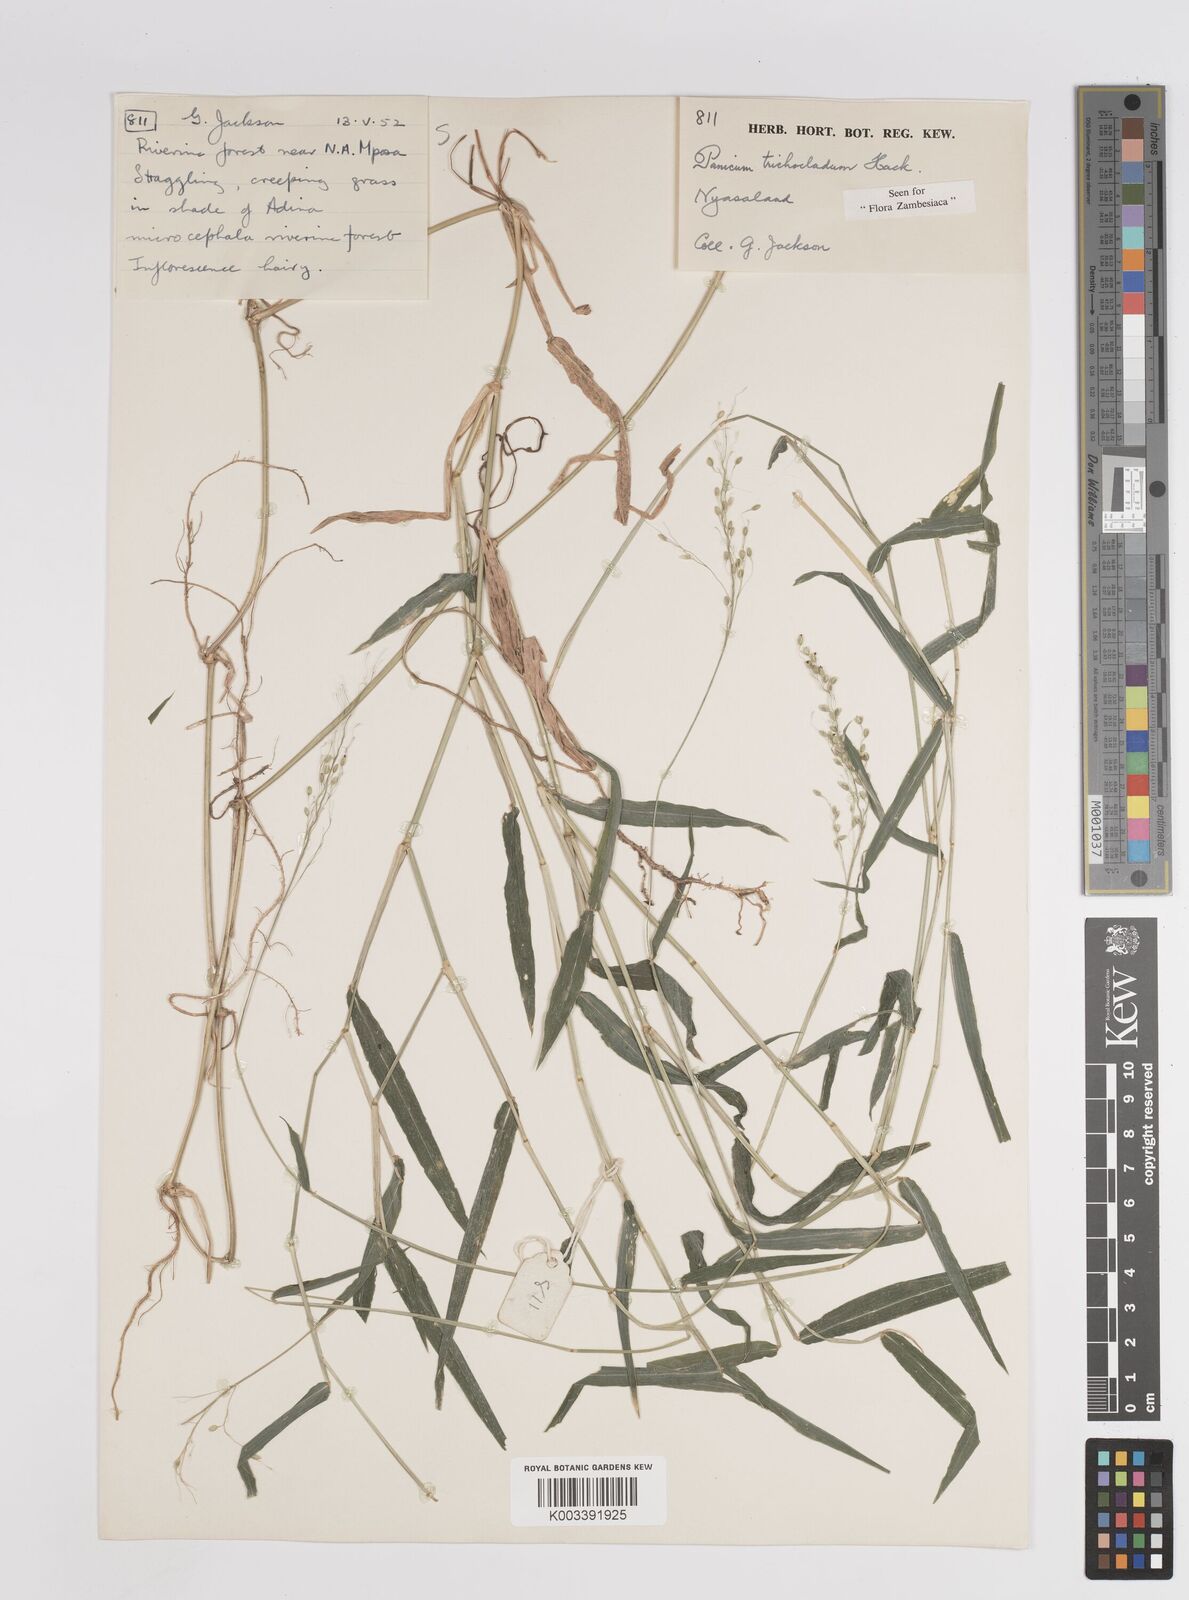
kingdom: Plantae
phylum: Tracheophyta
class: Liliopsida
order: Poales
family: Poaceae
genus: Panicum
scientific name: Panicum trichocladum
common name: Donkey grass
